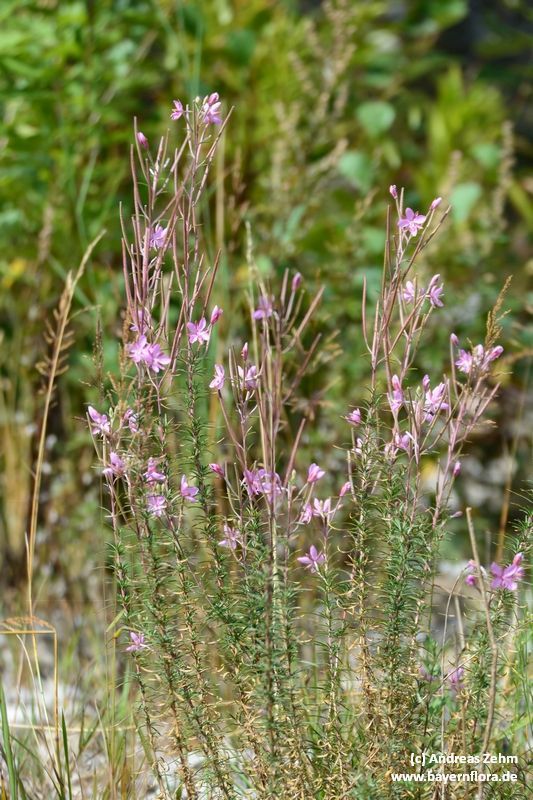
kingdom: Plantae
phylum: Tracheophyta
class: Magnoliopsida
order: Myrtales
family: Onagraceae
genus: Chamaenerion
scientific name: Chamaenerion dodonaei
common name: Rosemary-leaved willowherb
